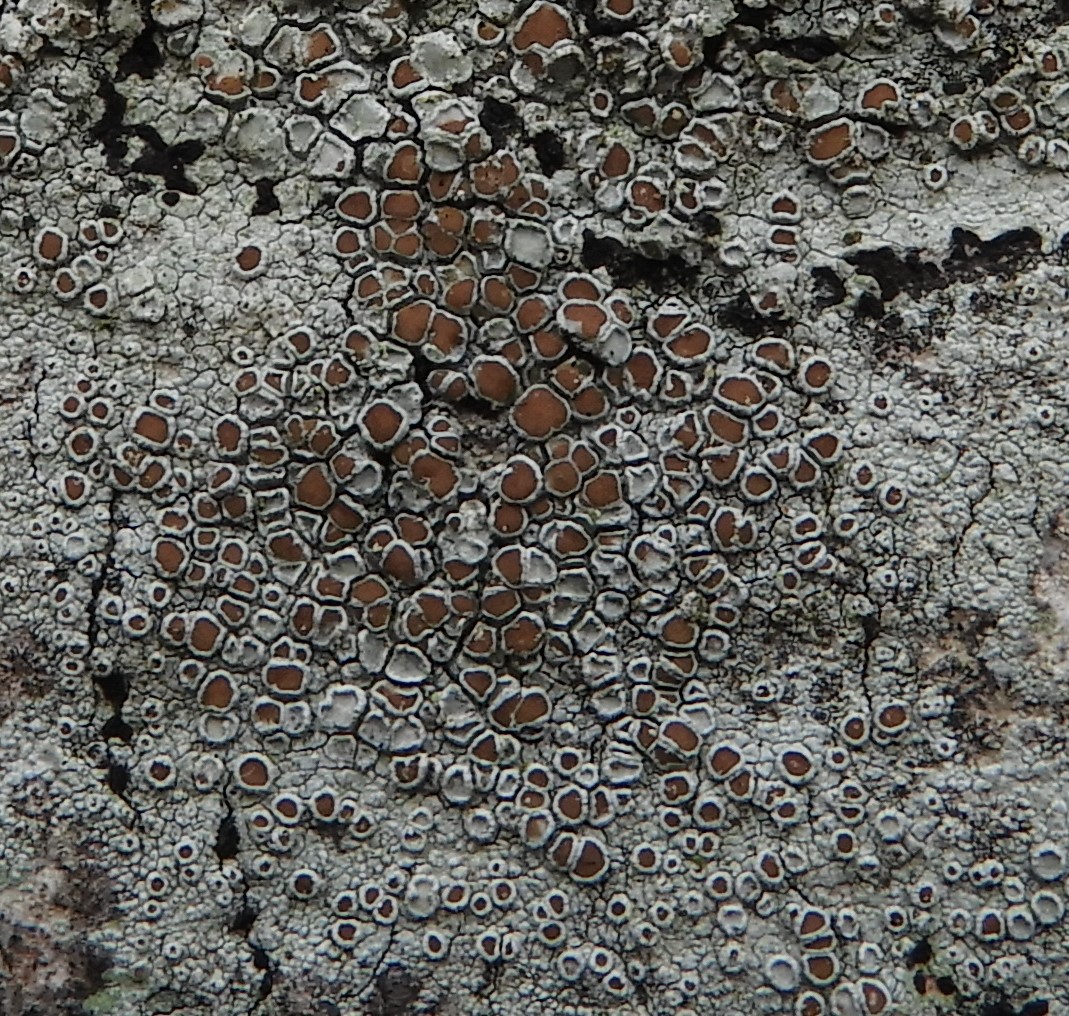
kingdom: Fungi
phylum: Ascomycota
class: Lecanoromycetes
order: Lecanorales
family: Lecanoraceae
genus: Lecanora
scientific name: Lecanora chlarotera
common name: brun kantskivelav
